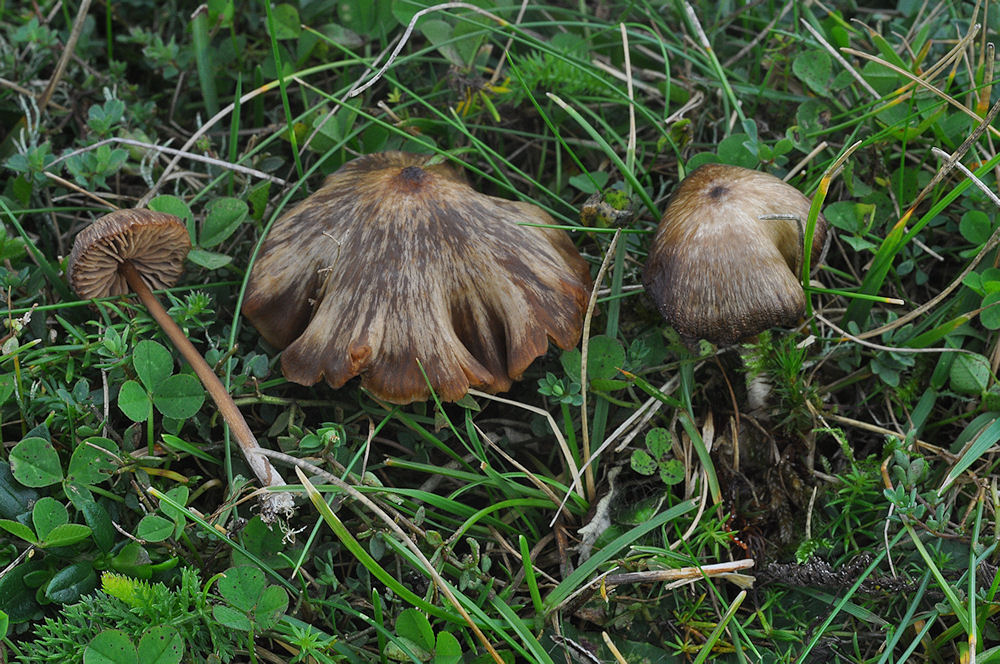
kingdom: Fungi
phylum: Basidiomycota
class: Agaricomycetes
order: Agaricales
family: Entolomataceae
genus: Entoloma
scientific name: Entoloma clandestinum
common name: tykbladet rødblad
